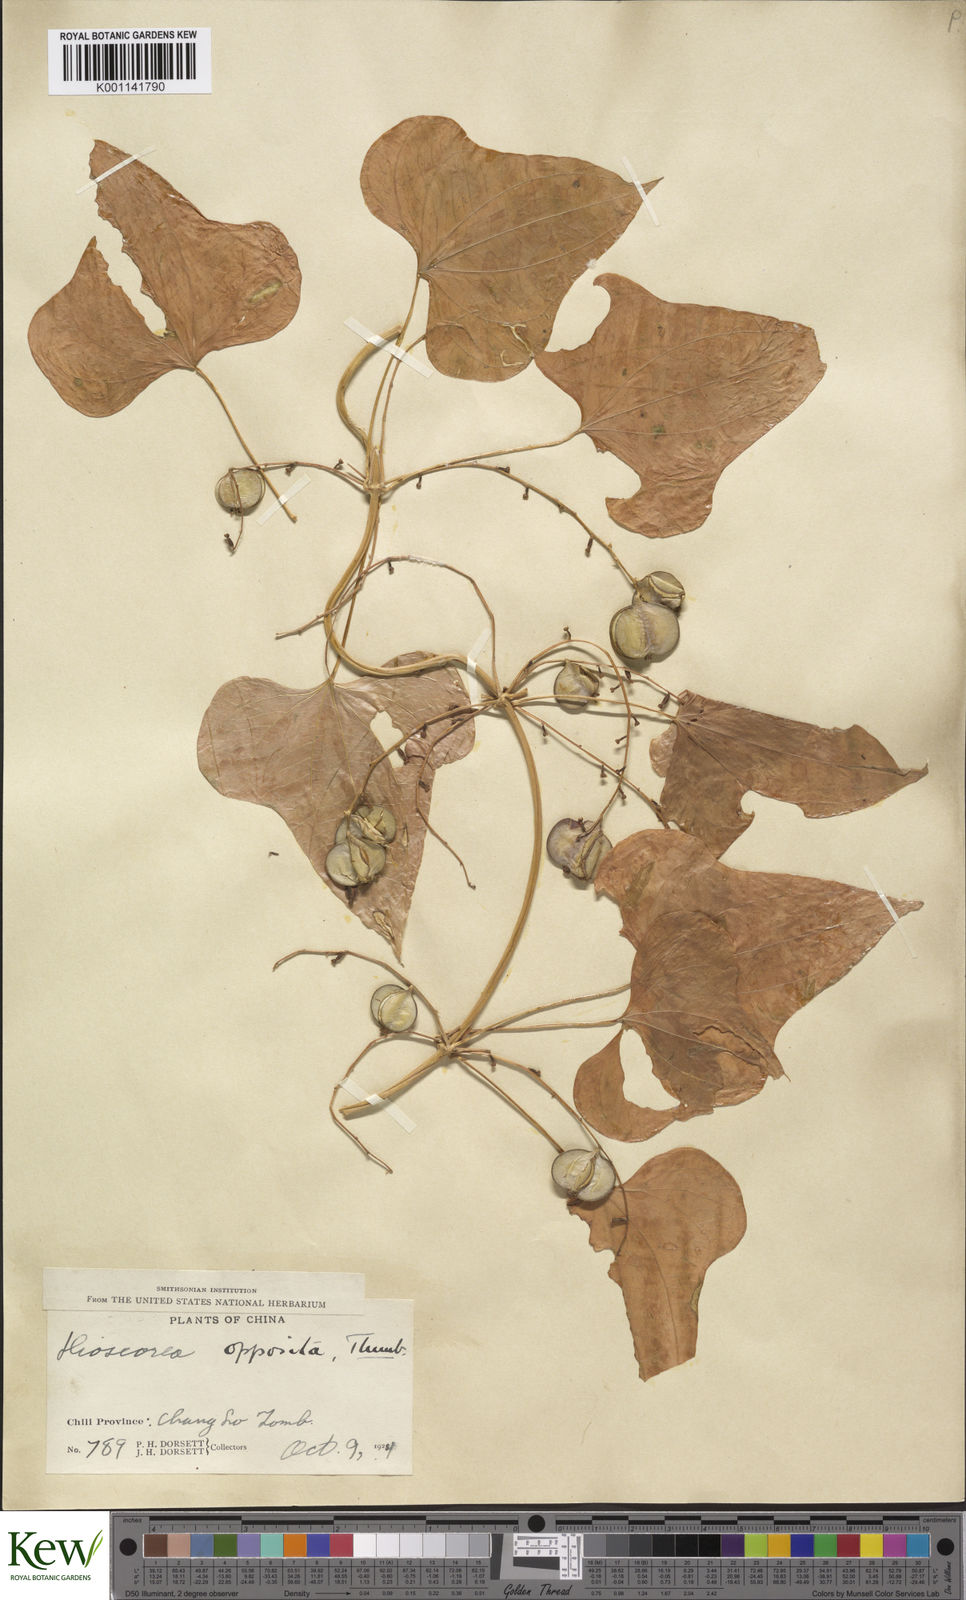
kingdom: Plantae
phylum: Tracheophyta
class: Liliopsida
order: Dioscoreales
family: Dioscoreaceae
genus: Dioscorea
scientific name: Dioscorea oppositifolia
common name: Chinese yam
